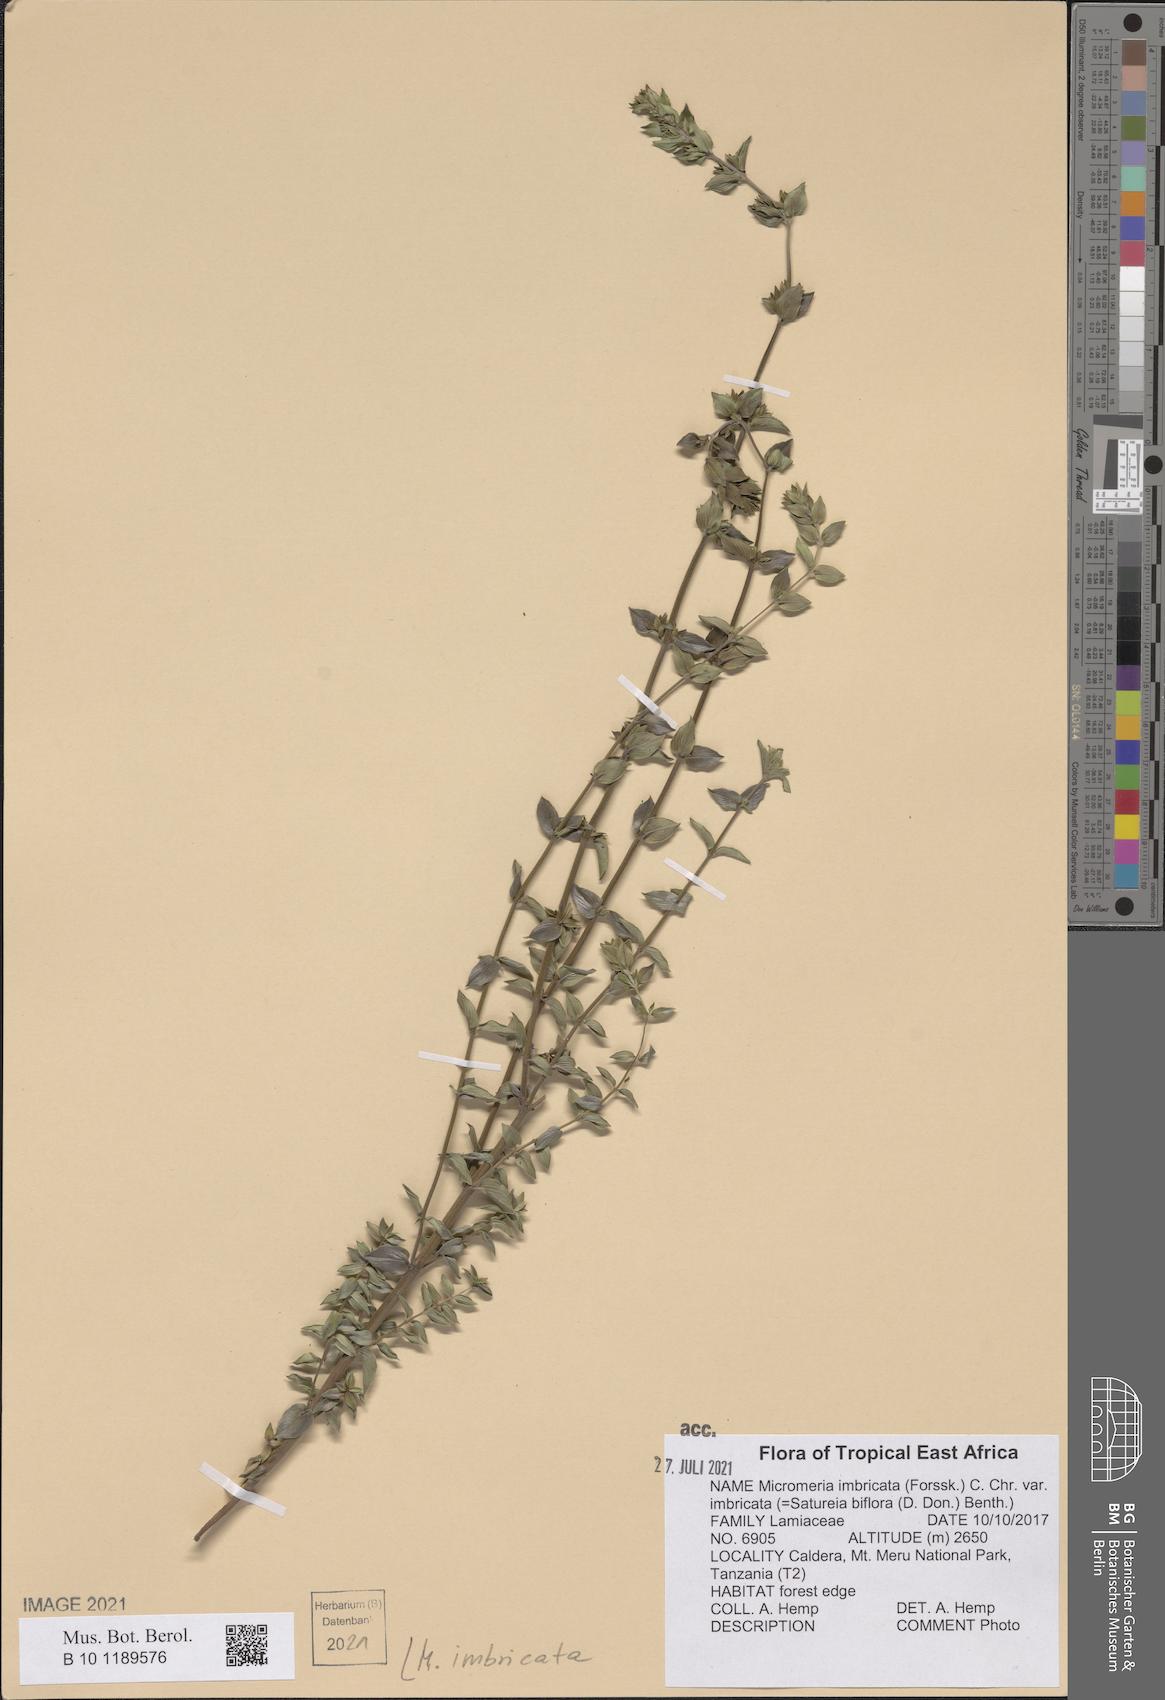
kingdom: Plantae
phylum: Tracheophyta
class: Magnoliopsida
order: Lamiales
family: Lamiaceae
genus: Micromeria
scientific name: Micromeria imbricata
